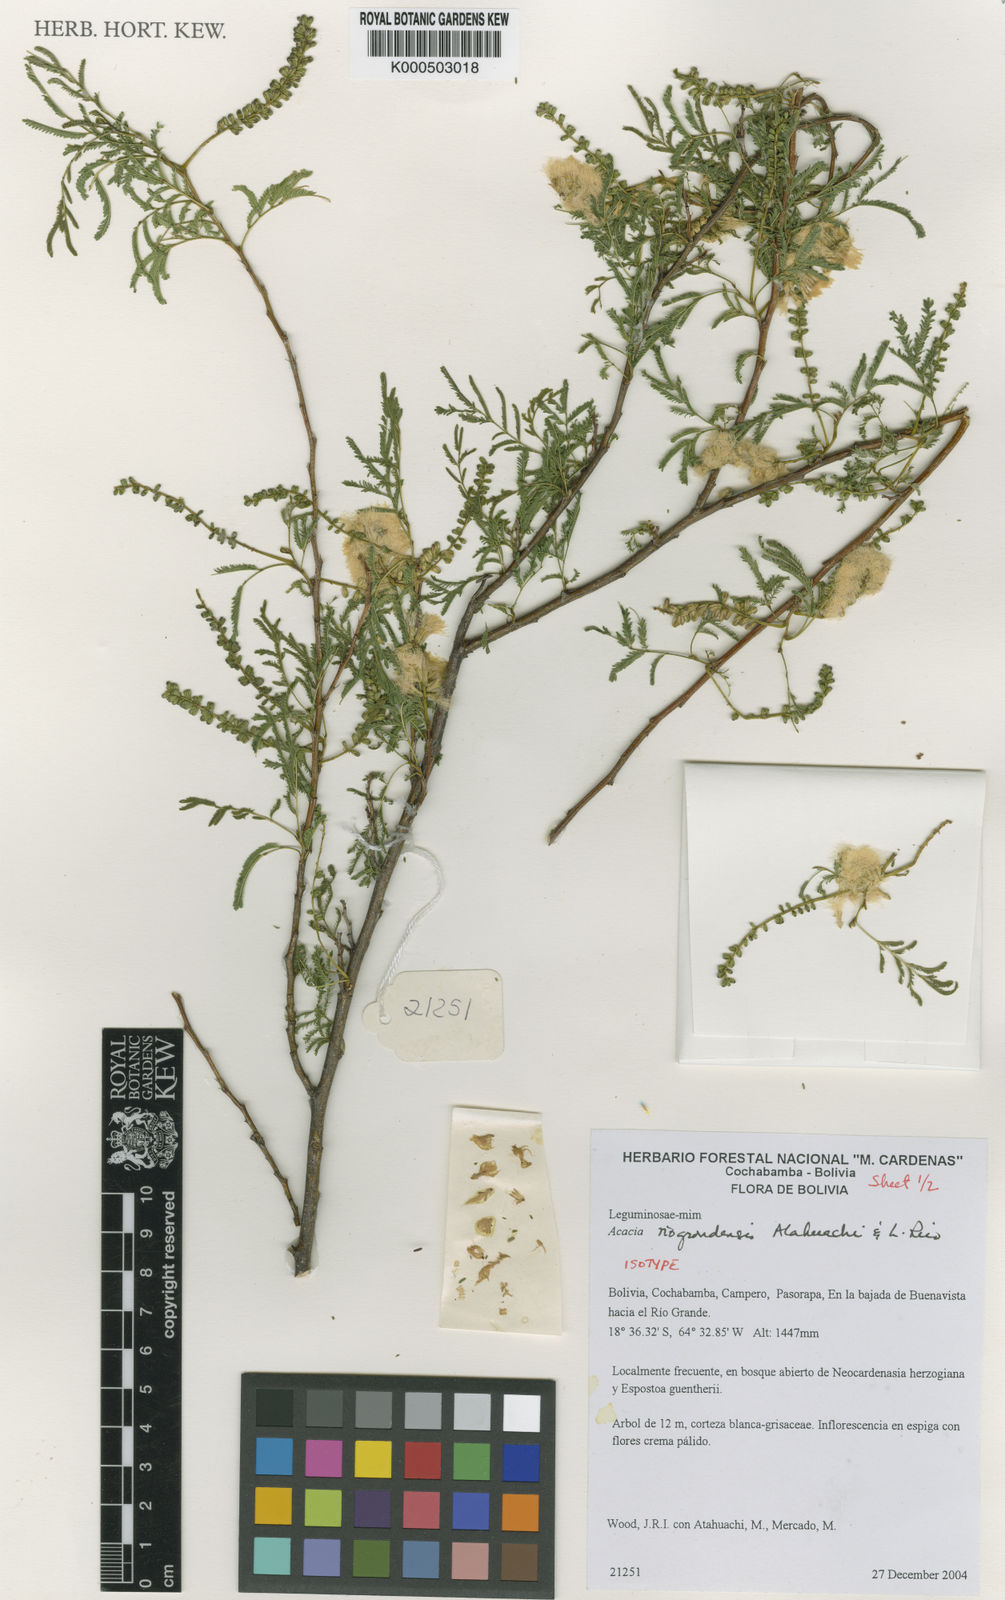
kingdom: Plantae
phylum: Tracheophyta
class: Magnoliopsida
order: Fabales
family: Fabaceae
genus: Pseudosenegalia
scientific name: Pseudosenegalia riograndensis
